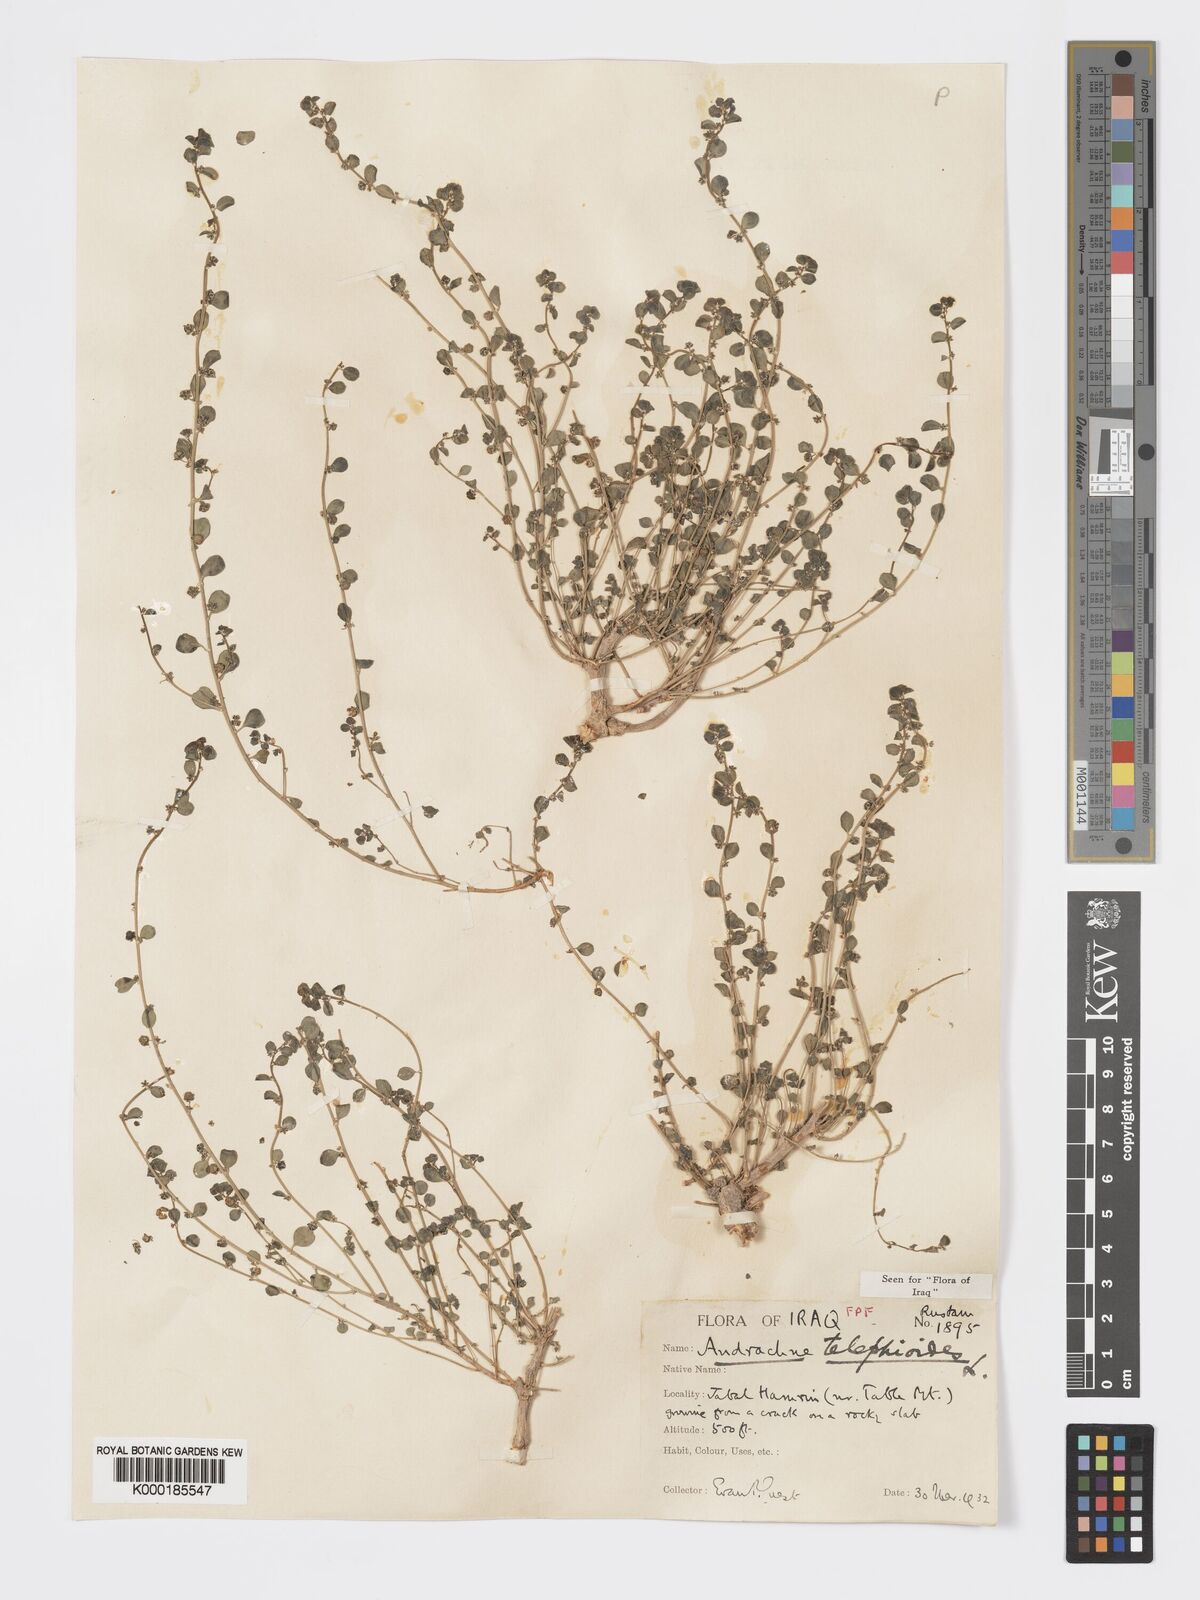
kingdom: Plantae
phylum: Tracheophyta
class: Magnoliopsida
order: Malpighiales
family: Phyllanthaceae
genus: Andrachne
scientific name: Andrachne telephioides
